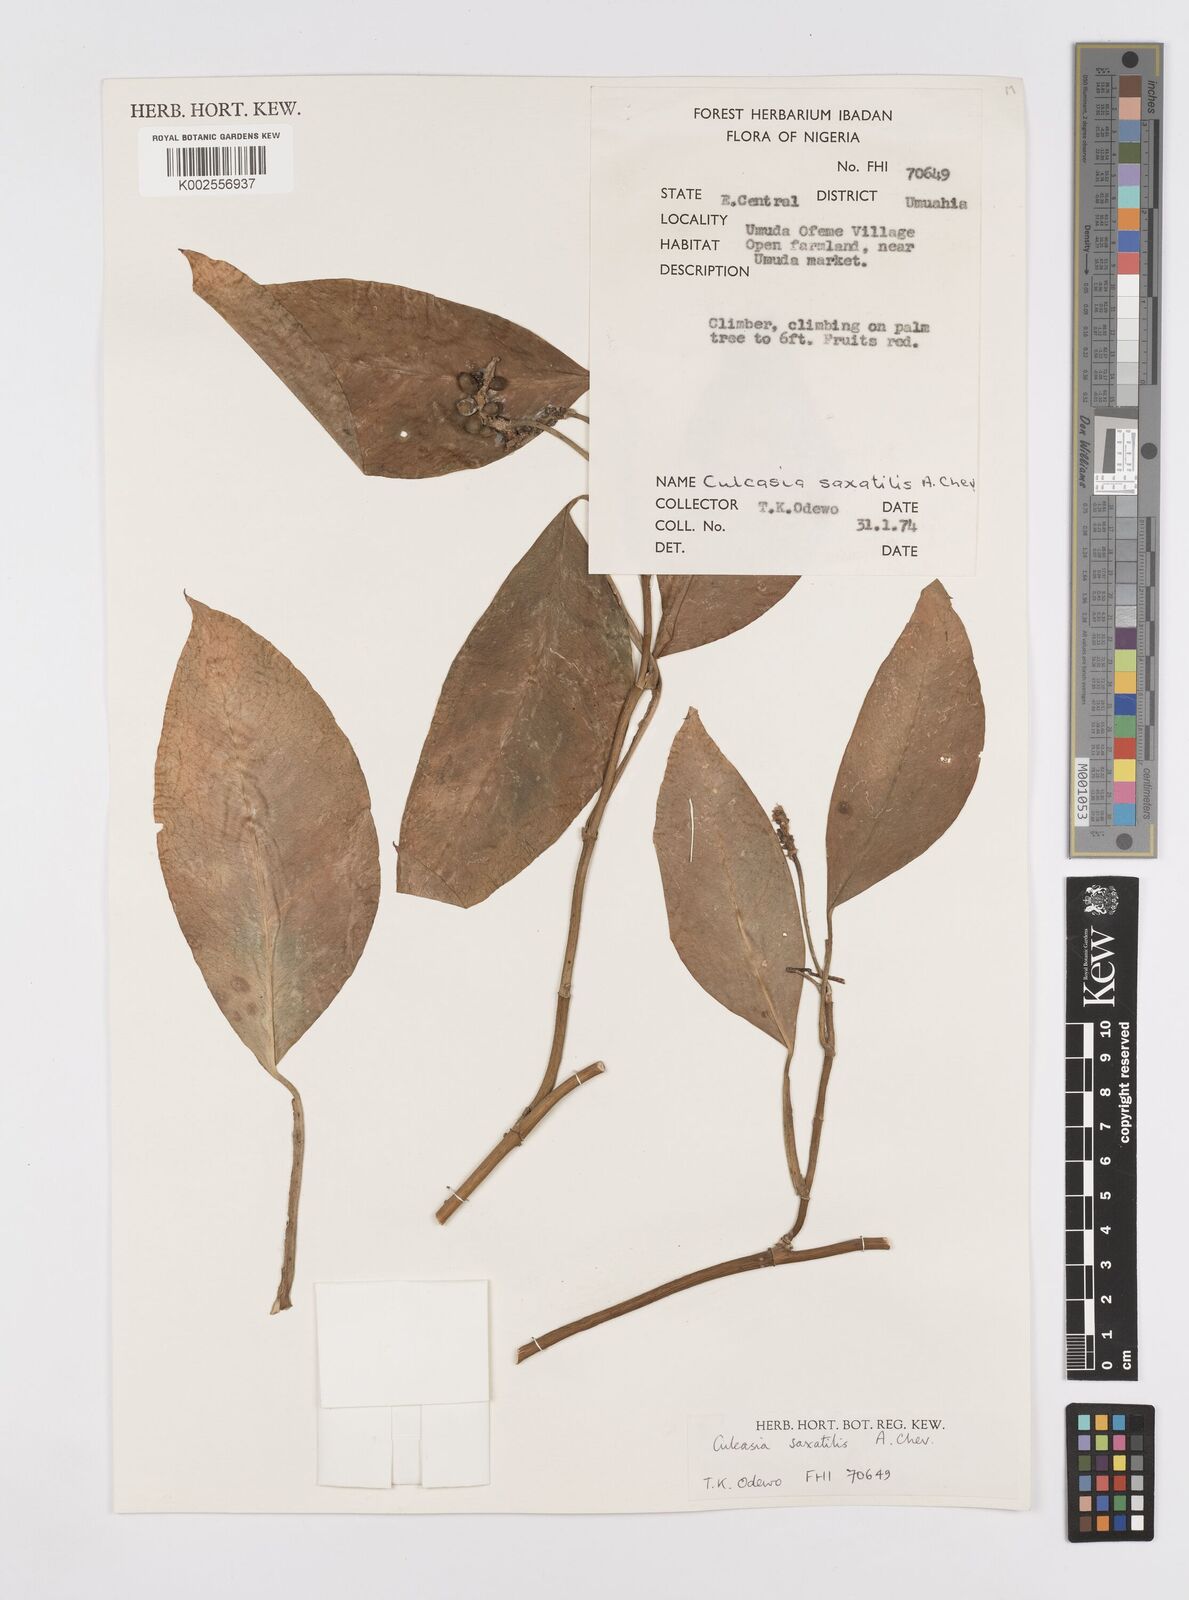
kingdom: Plantae
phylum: Tracheophyta
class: Liliopsida
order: Alismatales
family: Araceae
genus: Culcasia
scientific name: Culcasia scandens
